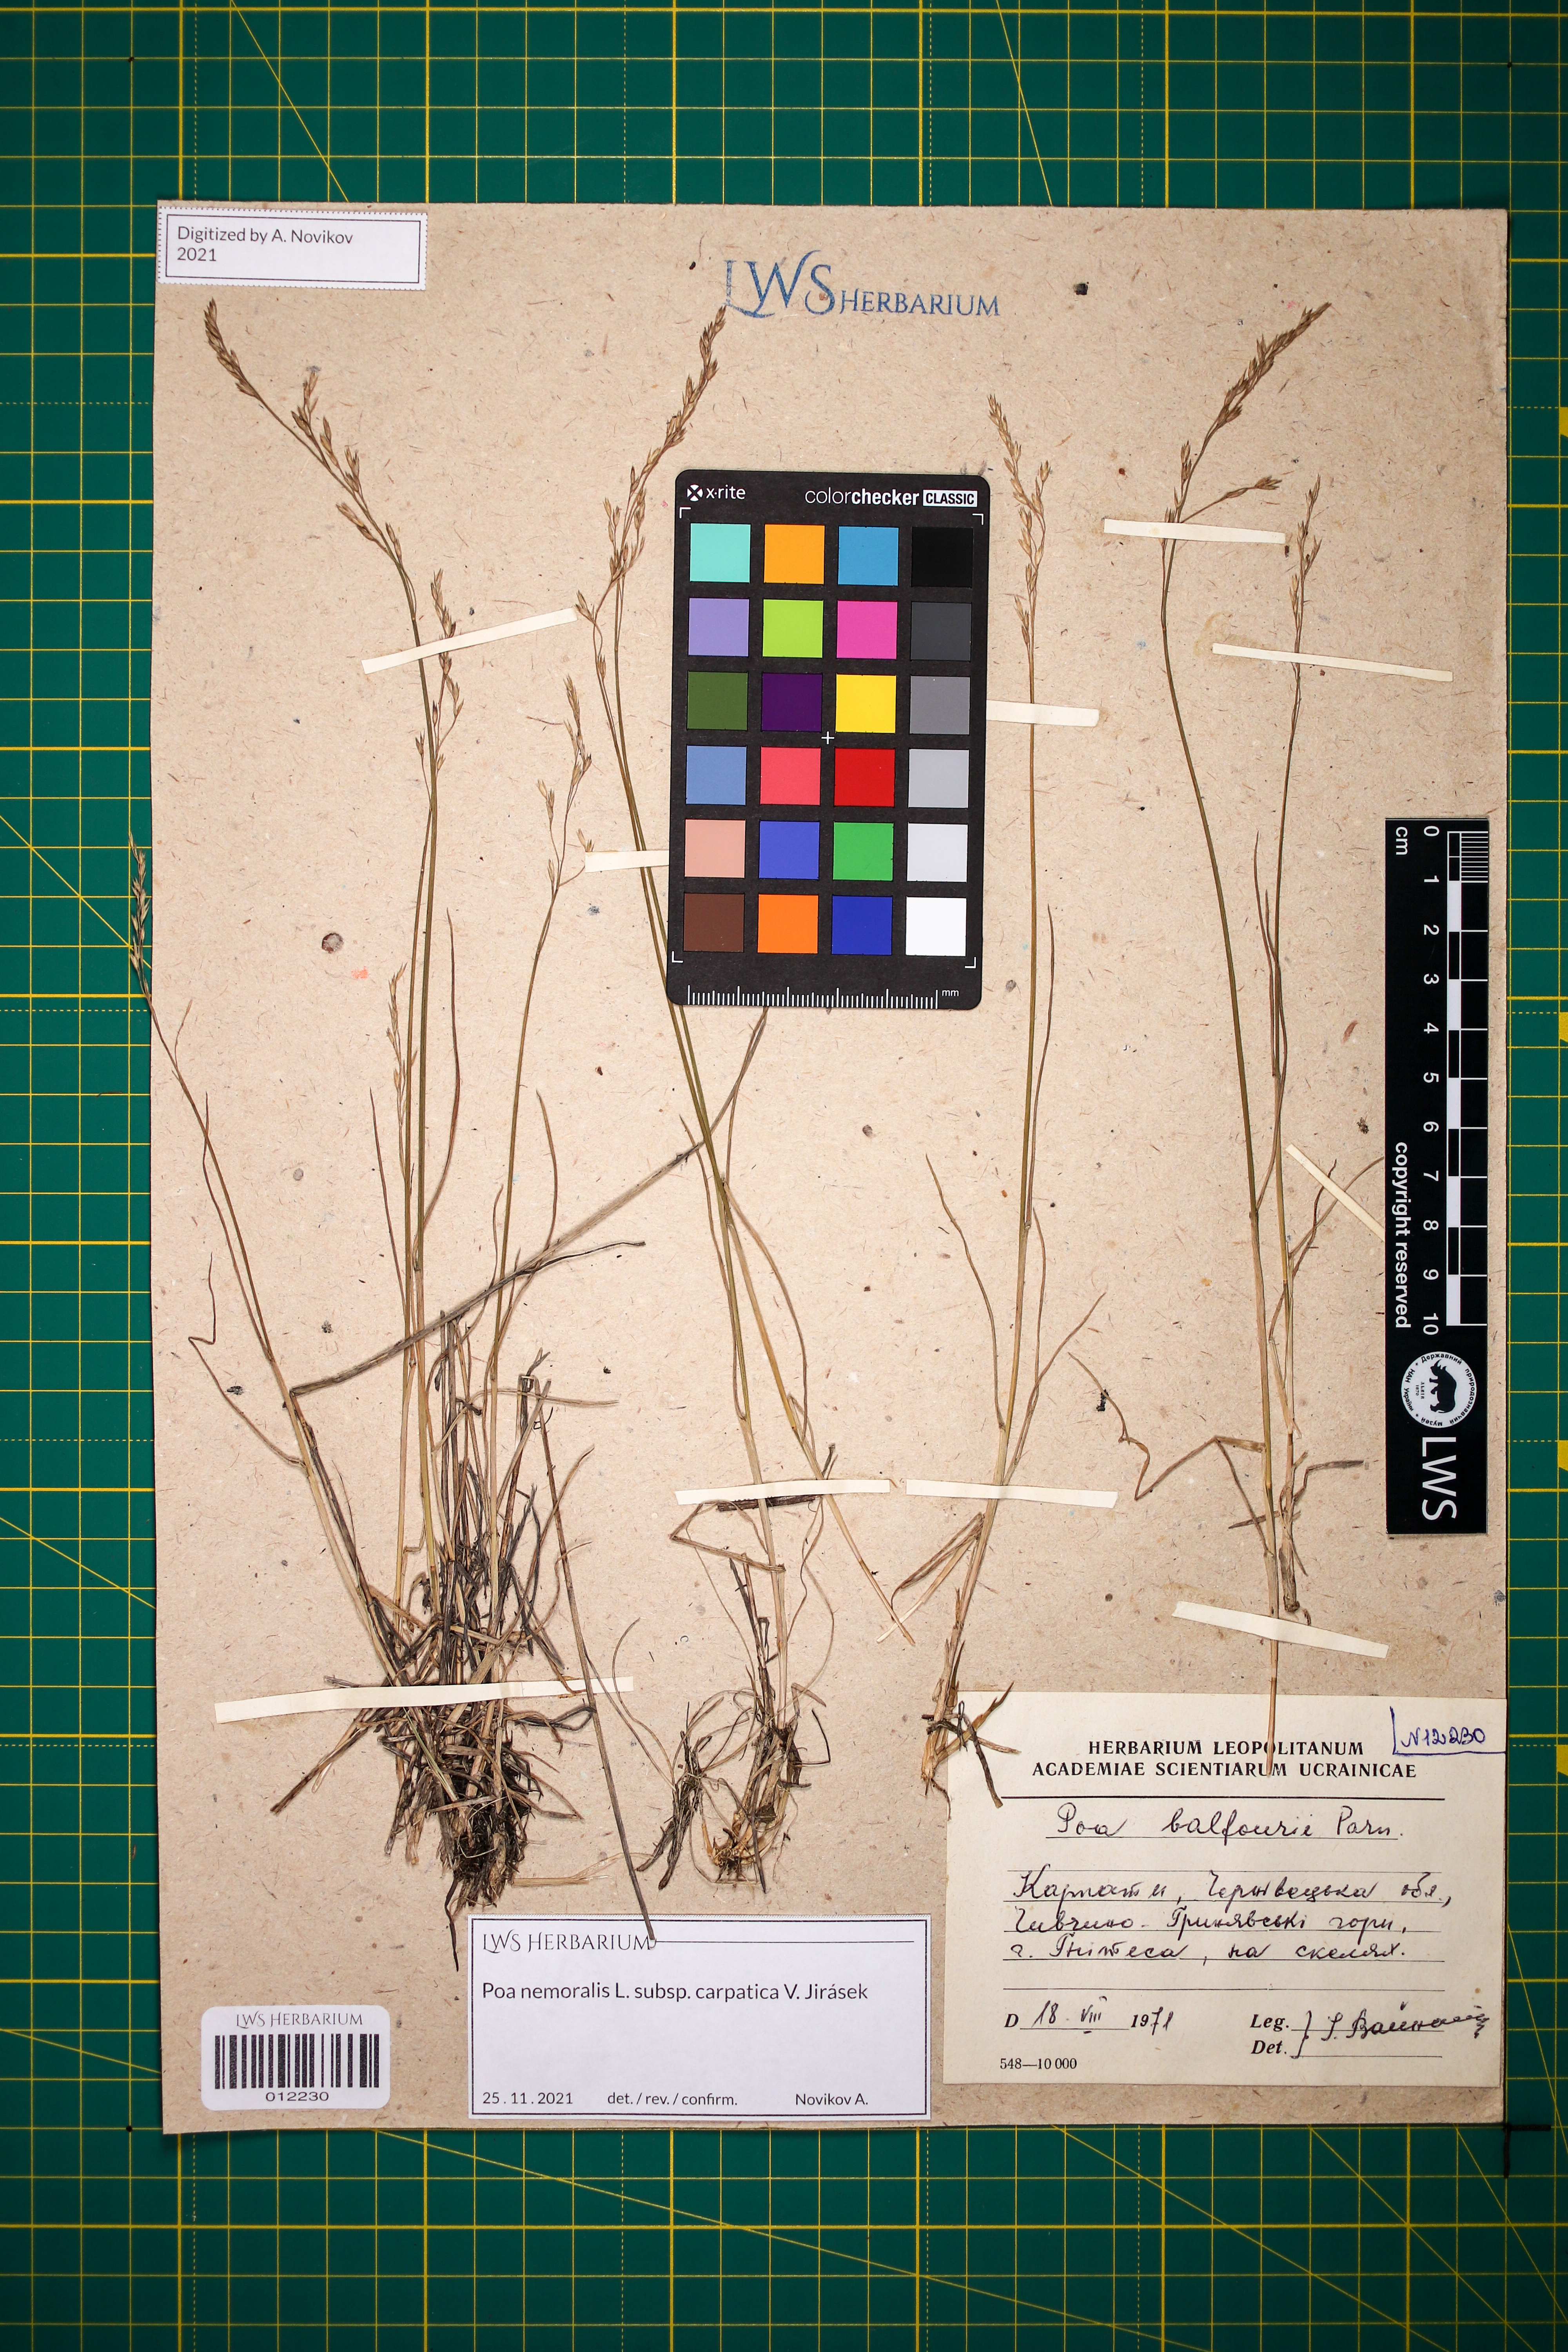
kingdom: Plantae
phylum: Tracheophyta
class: Liliopsida
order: Poales
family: Poaceae
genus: Poa
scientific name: Poa carpatica
